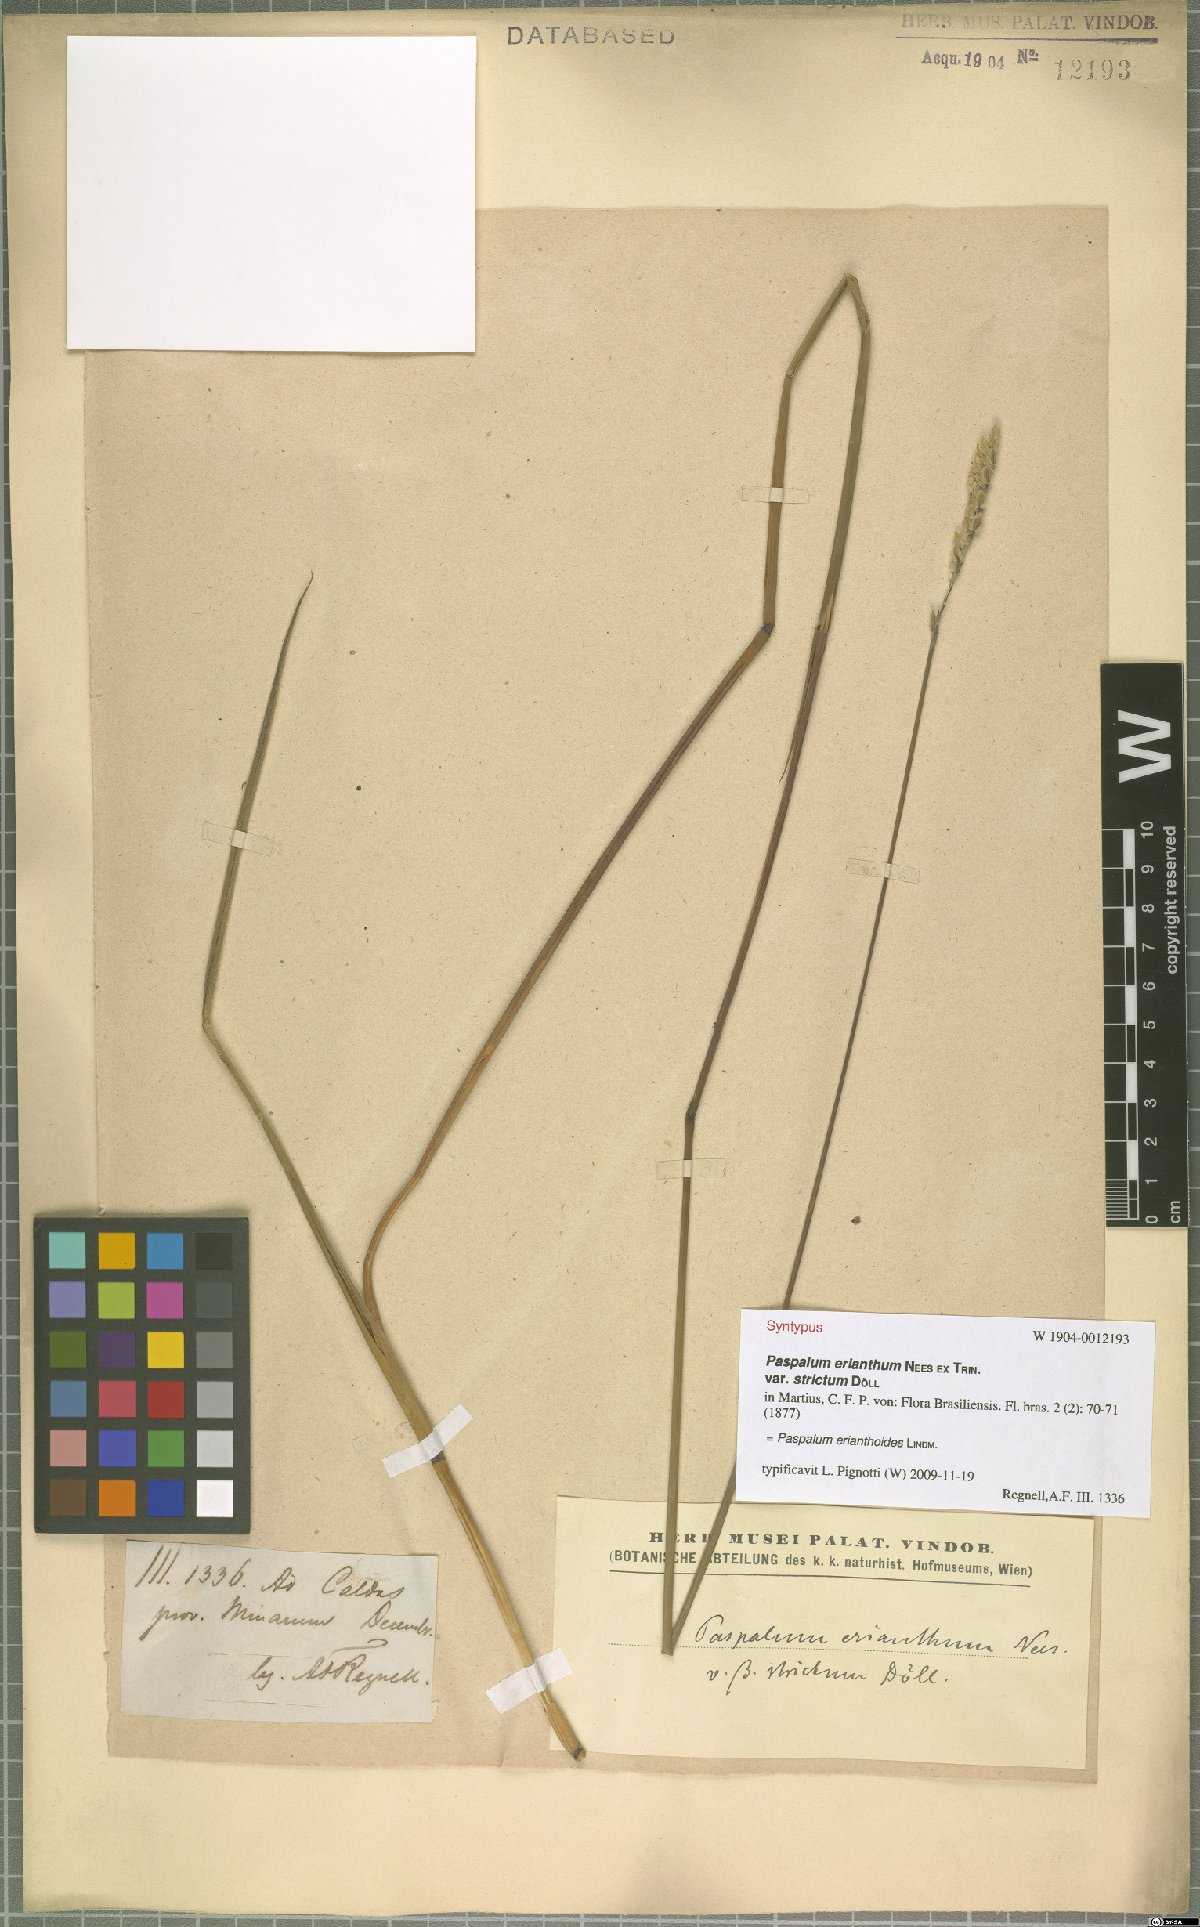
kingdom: Plantae
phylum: Tracheophyta
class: Liliopsida
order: Poales
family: Poaceae
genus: Paspalum
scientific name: Paspalum erianthoides
